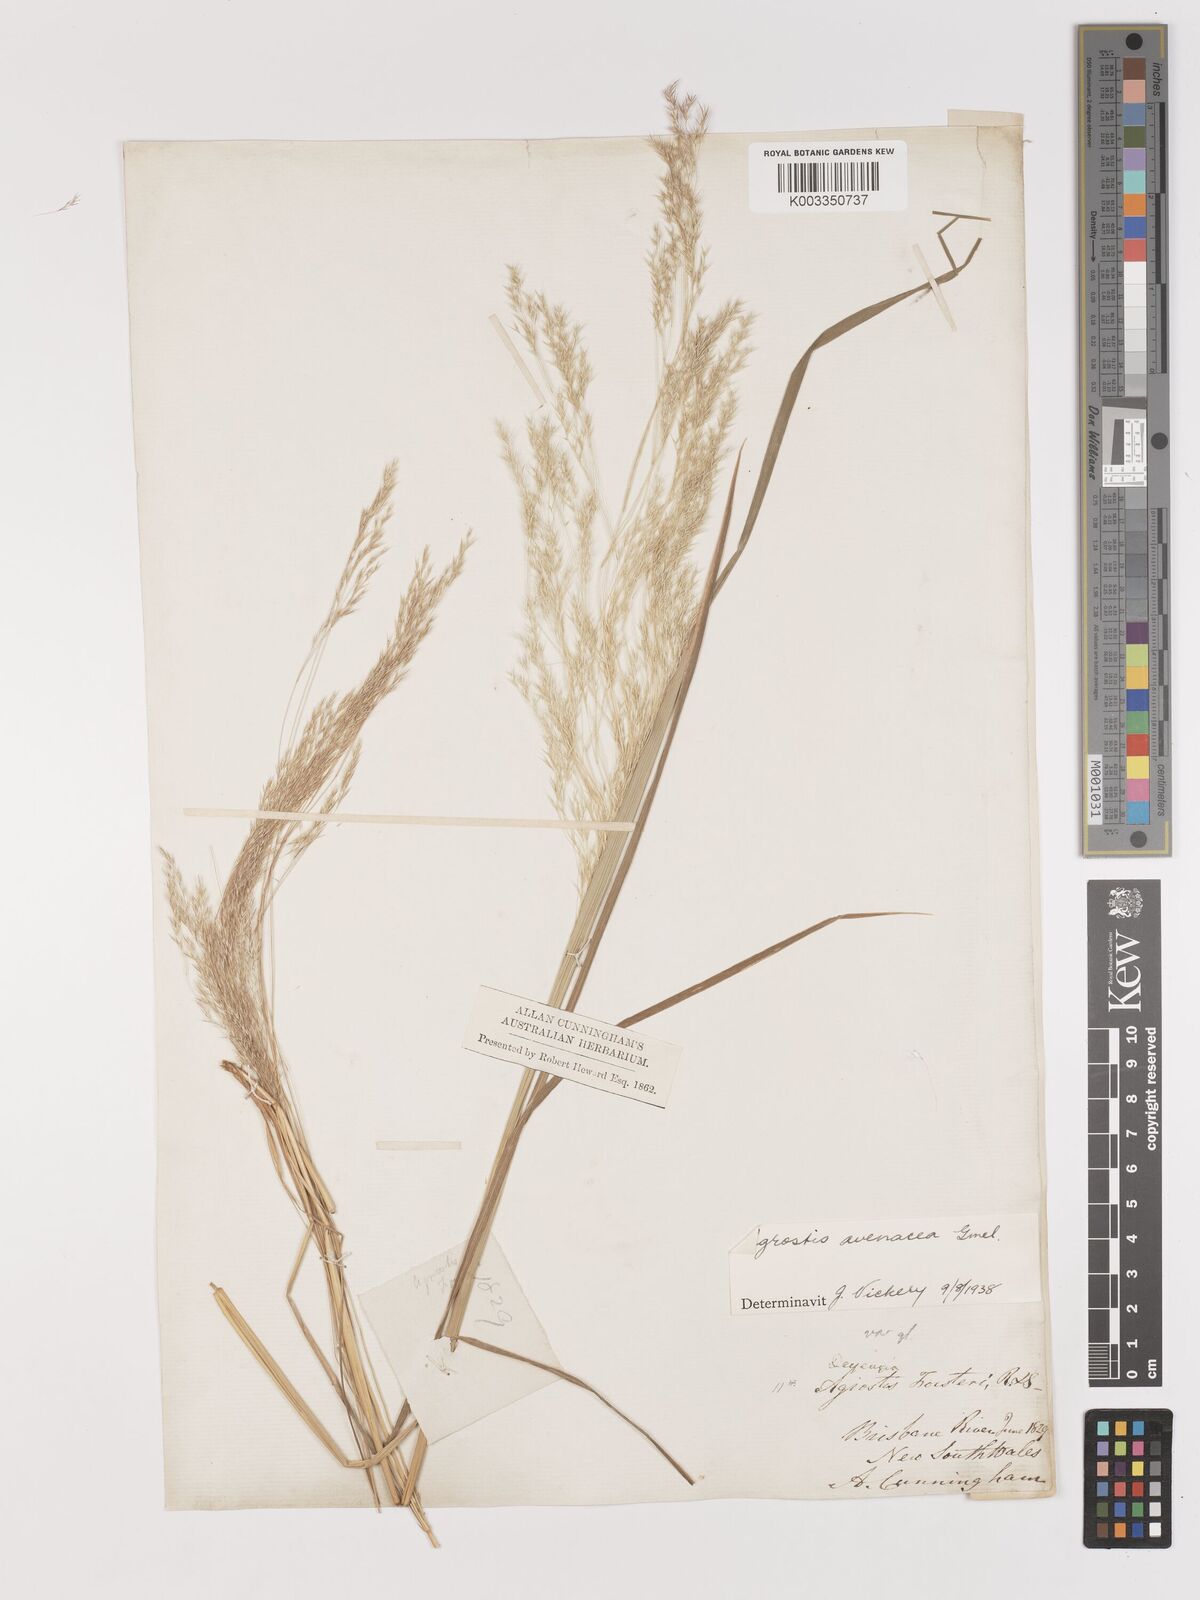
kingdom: Plantae
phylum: Tracheophyta
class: Liliopsida
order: Poales
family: Poaceae
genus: Lachnagrostis
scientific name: Lachnagrostis filiformis
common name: Bentgrass
